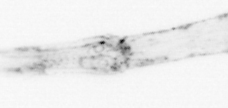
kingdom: Animalia
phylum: Arthropoda
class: Malacostraca
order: Decapoda
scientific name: Decapoda
